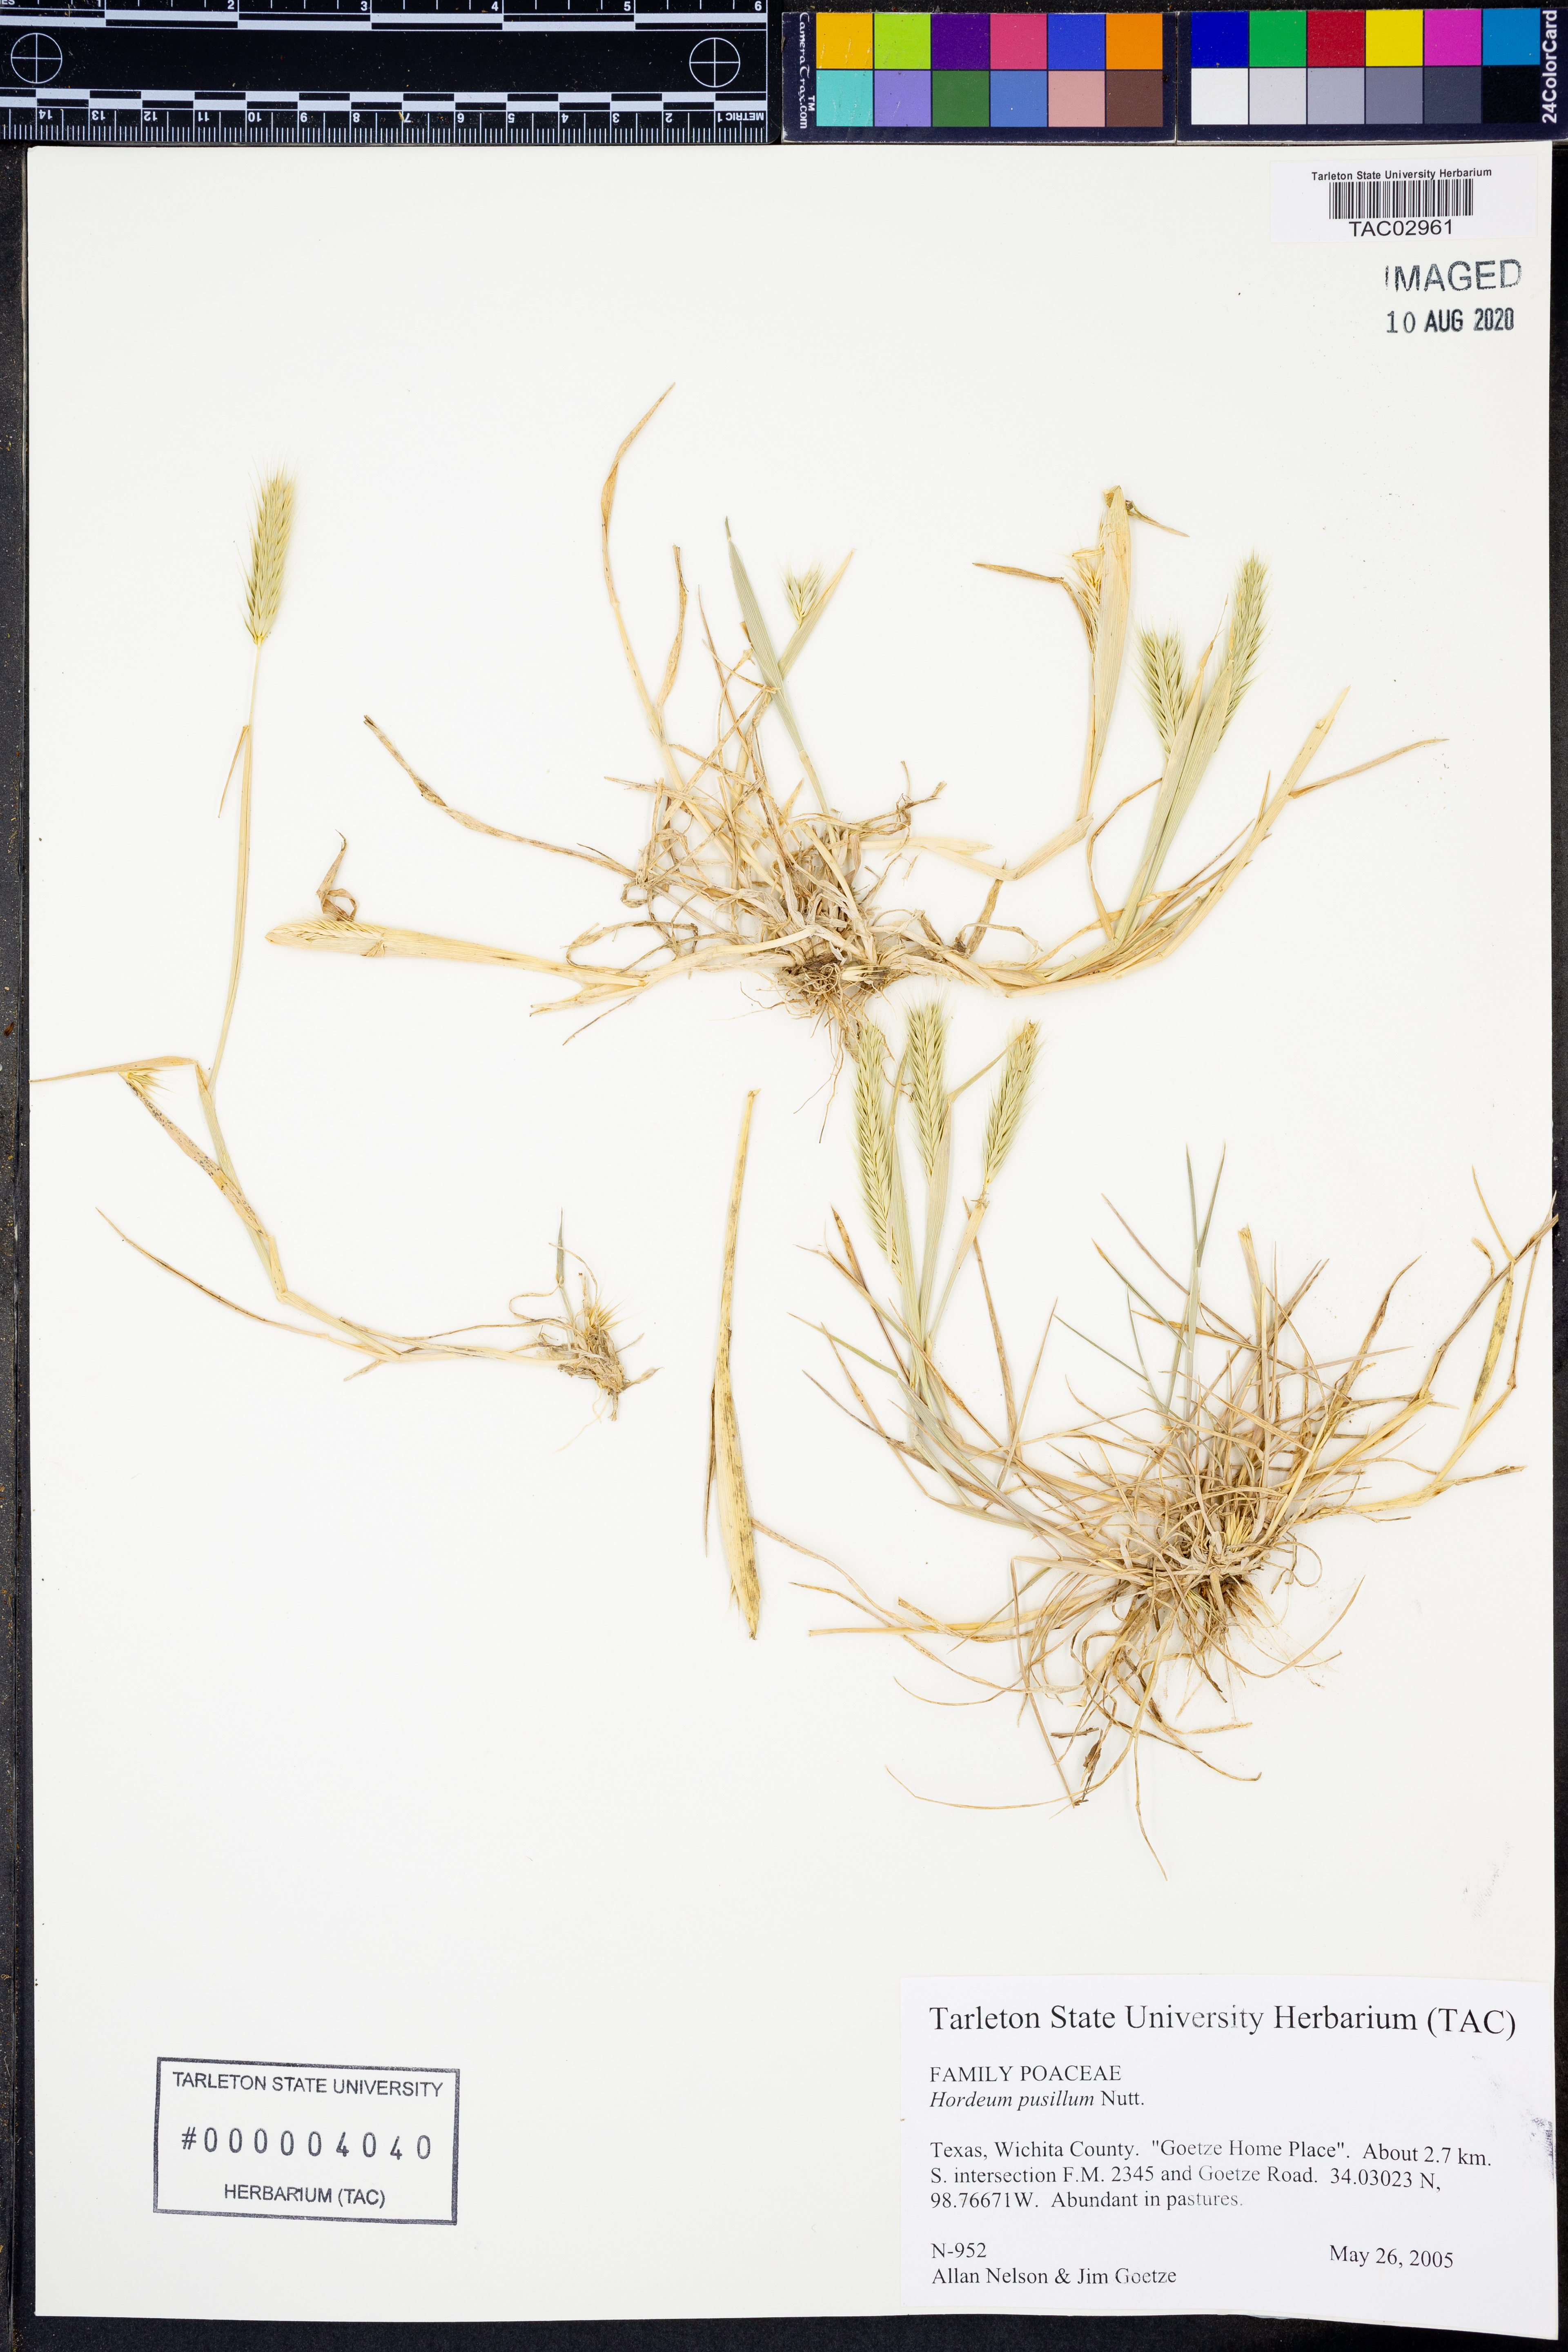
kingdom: Plantae
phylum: Tracheophyta
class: Liliopsida
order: Poales
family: Poaceae
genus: Hordeum
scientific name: Hordeum pusillum
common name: Little barley
